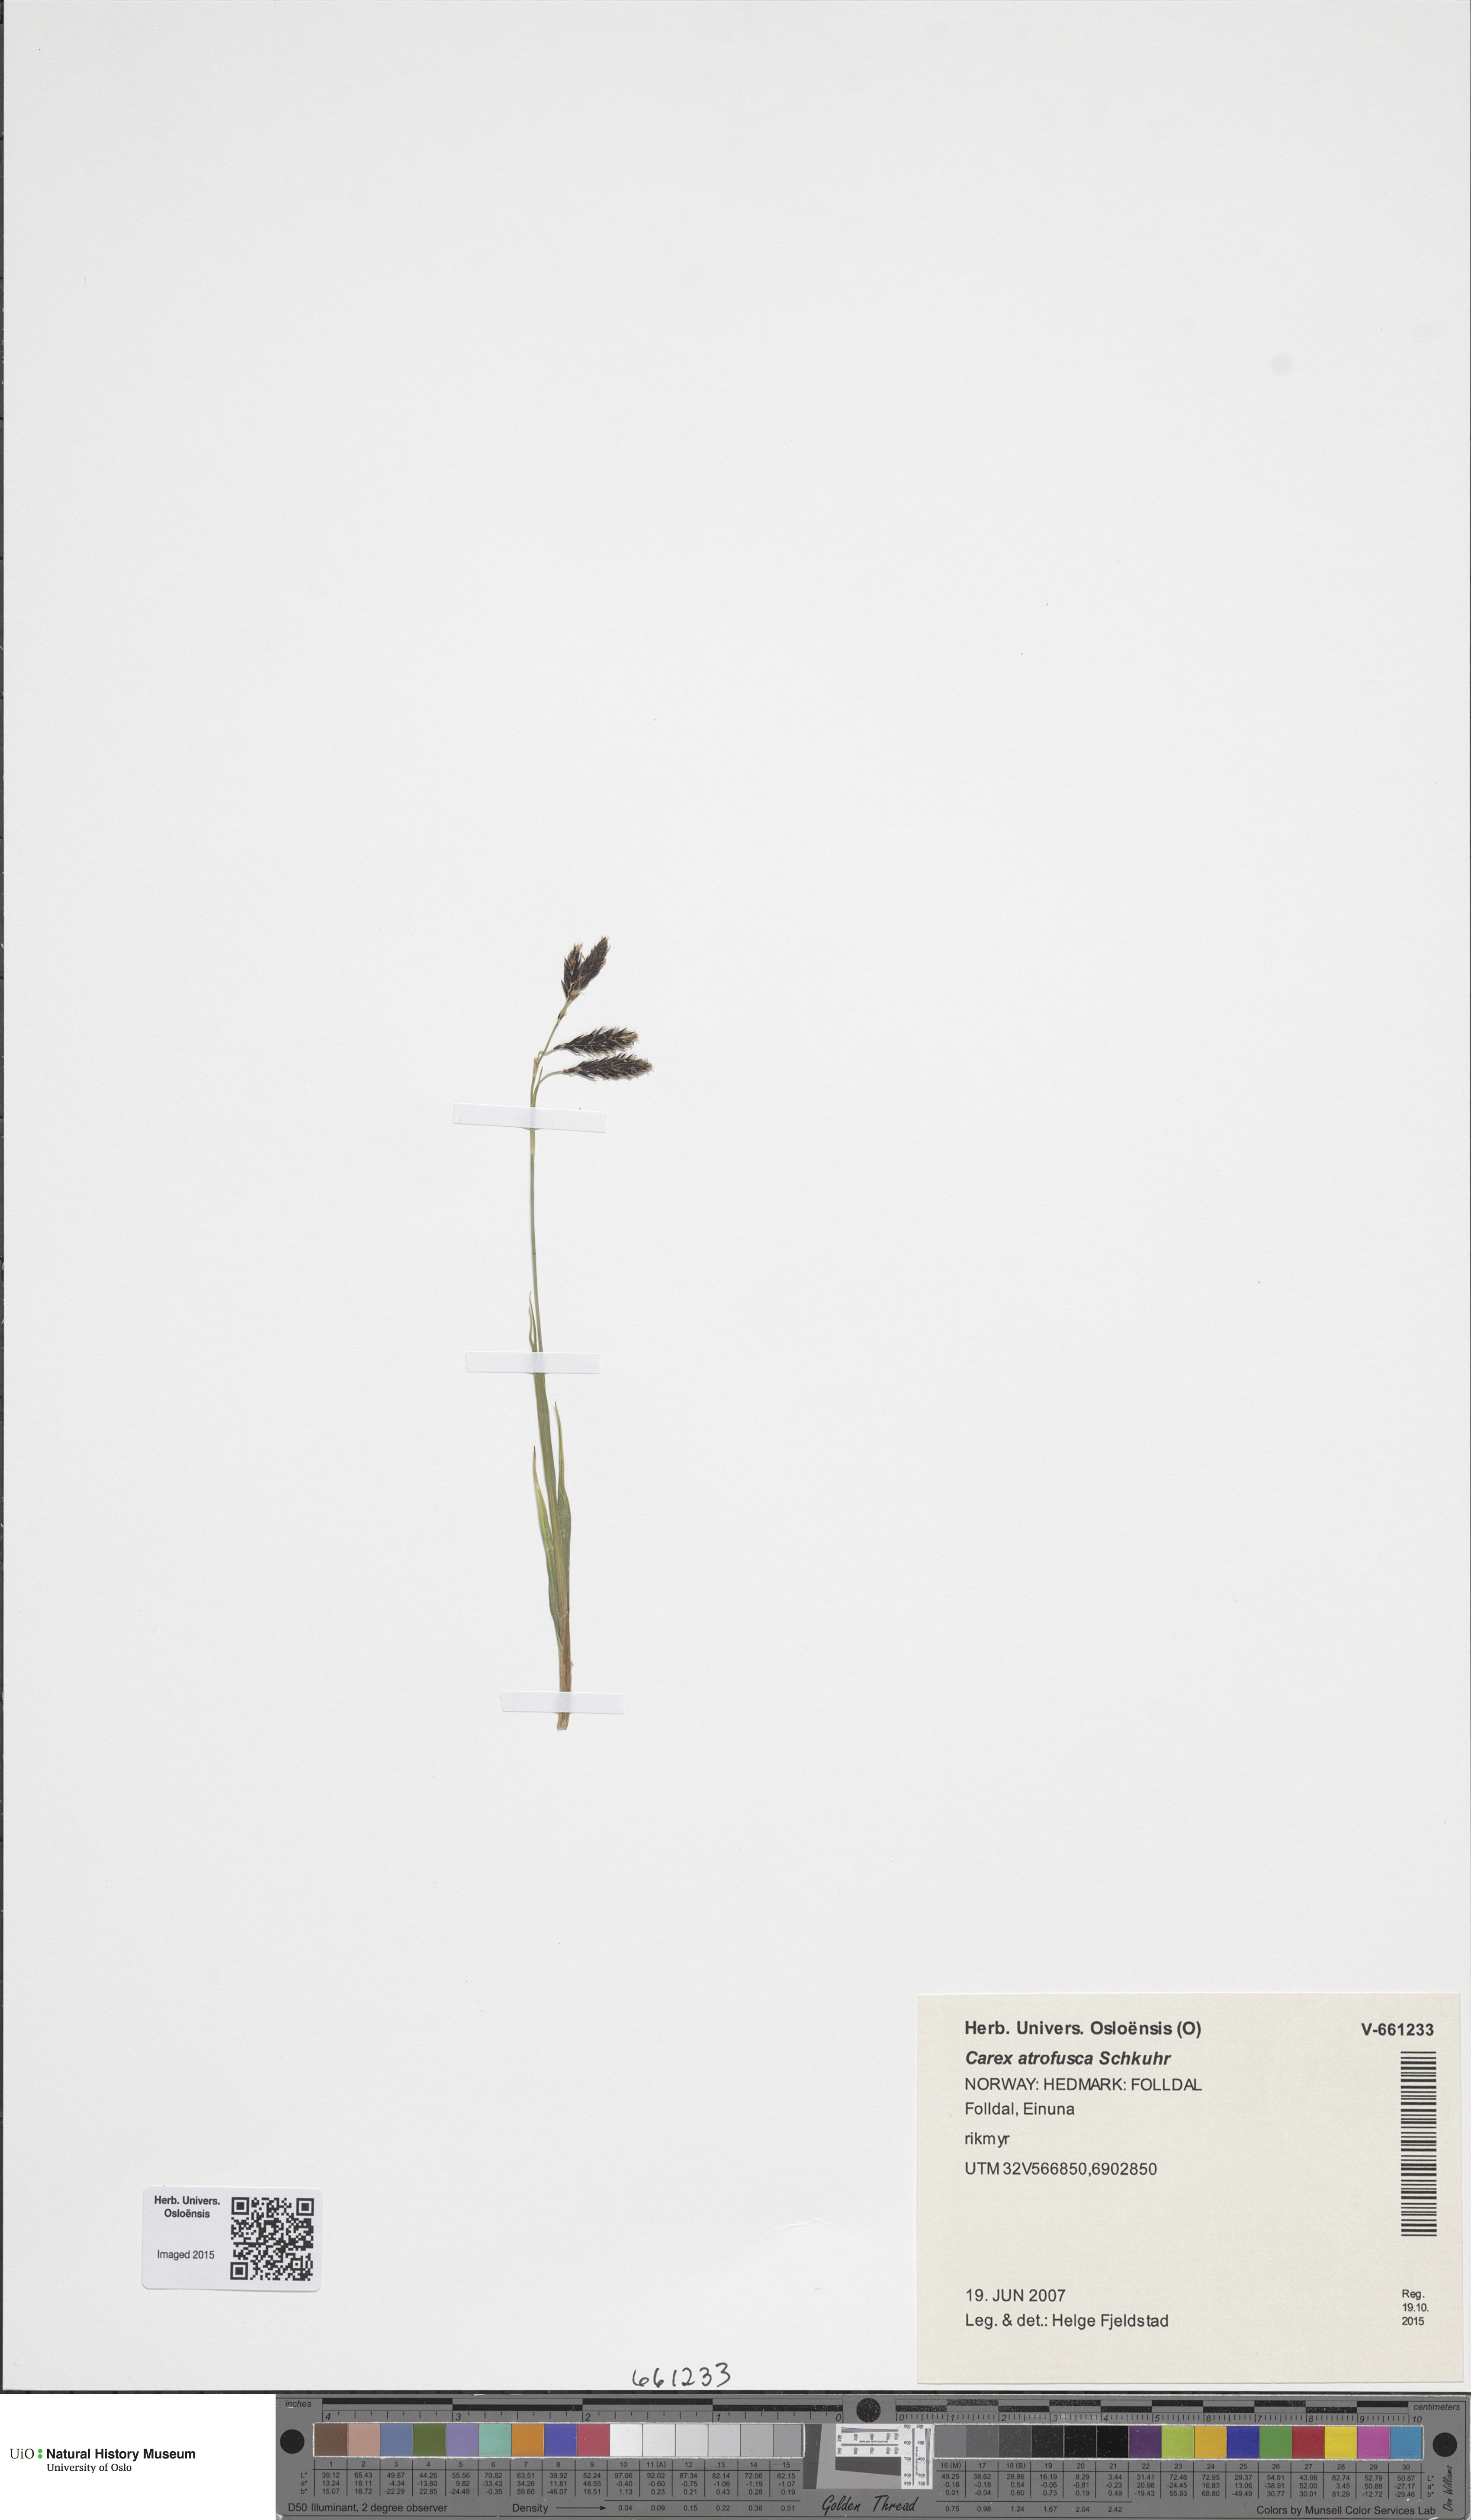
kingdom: Plantae
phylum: Tracheophyta
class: Liliopsida
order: Poales
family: Cyperaceae
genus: Carex
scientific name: Carex atrofusca
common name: Scorched alpine-sedge
